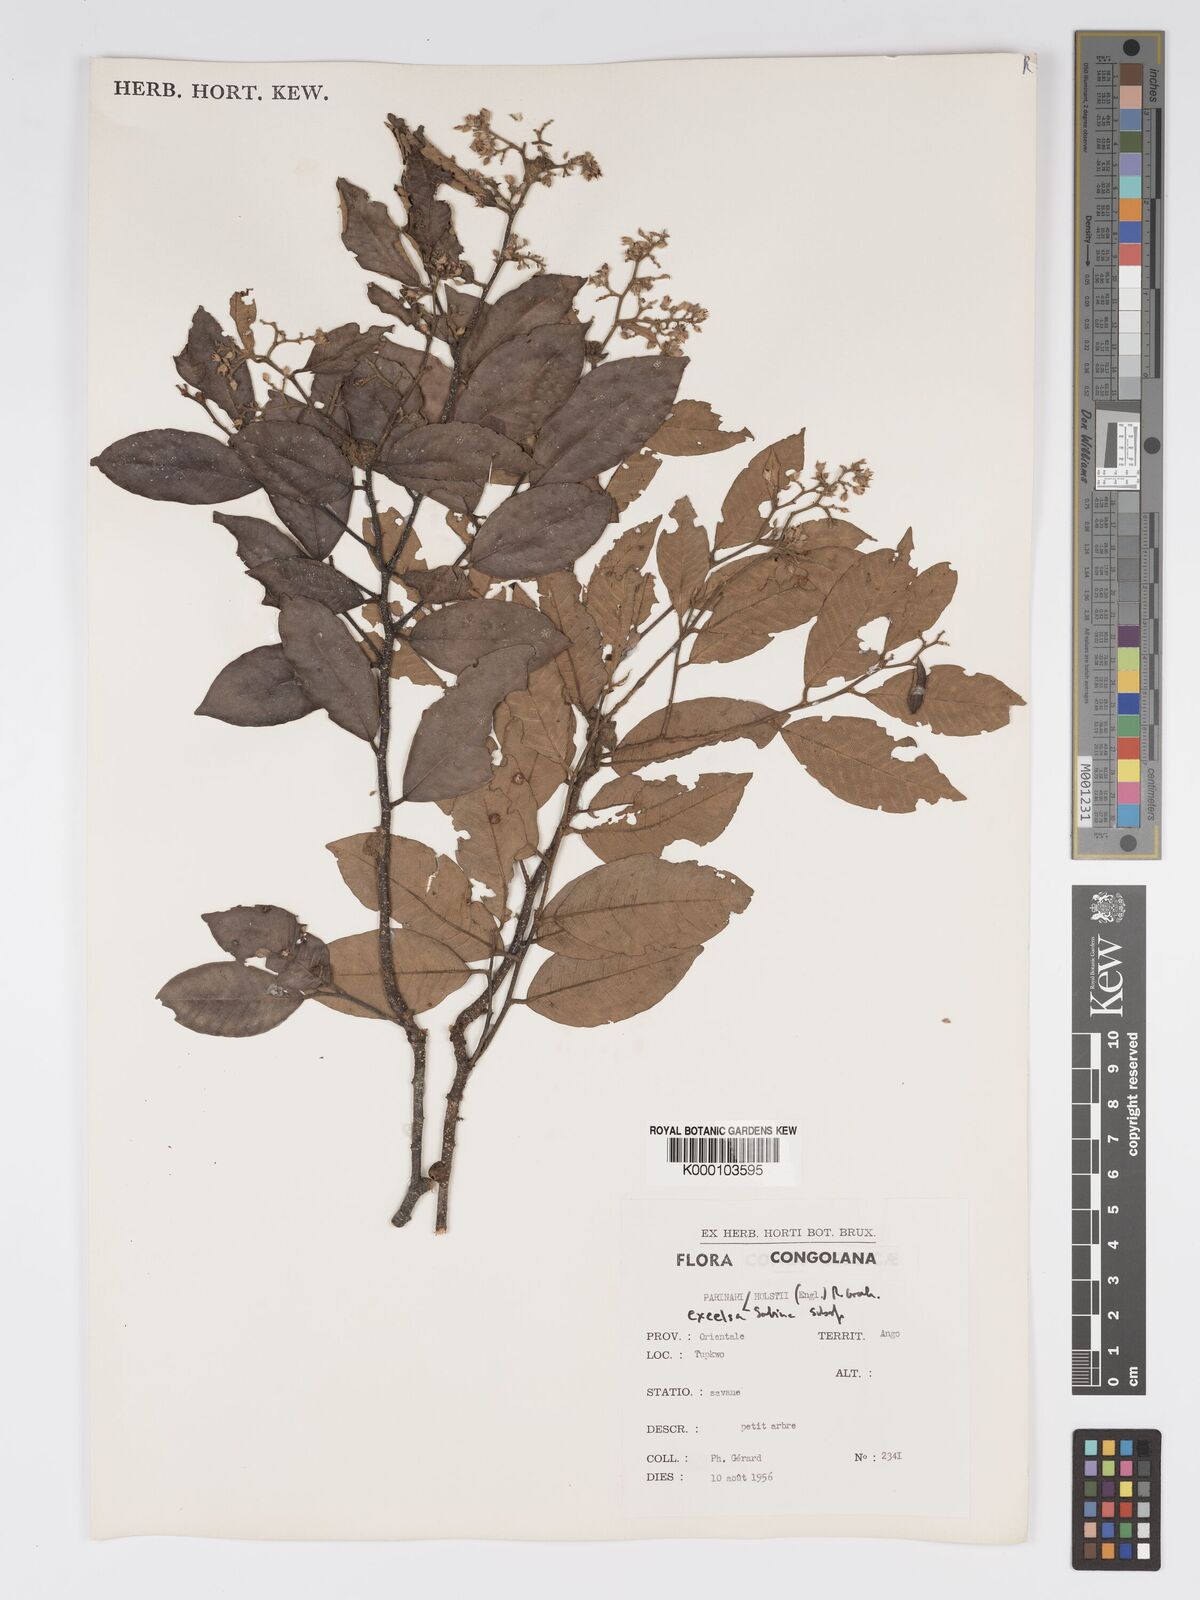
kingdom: Plantae
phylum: Tracheophyta
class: Magnoliopsida
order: Malpighiales
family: Chrysobalanaceae
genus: Parinari
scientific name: Parinari excelsa
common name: Guinea-plum
